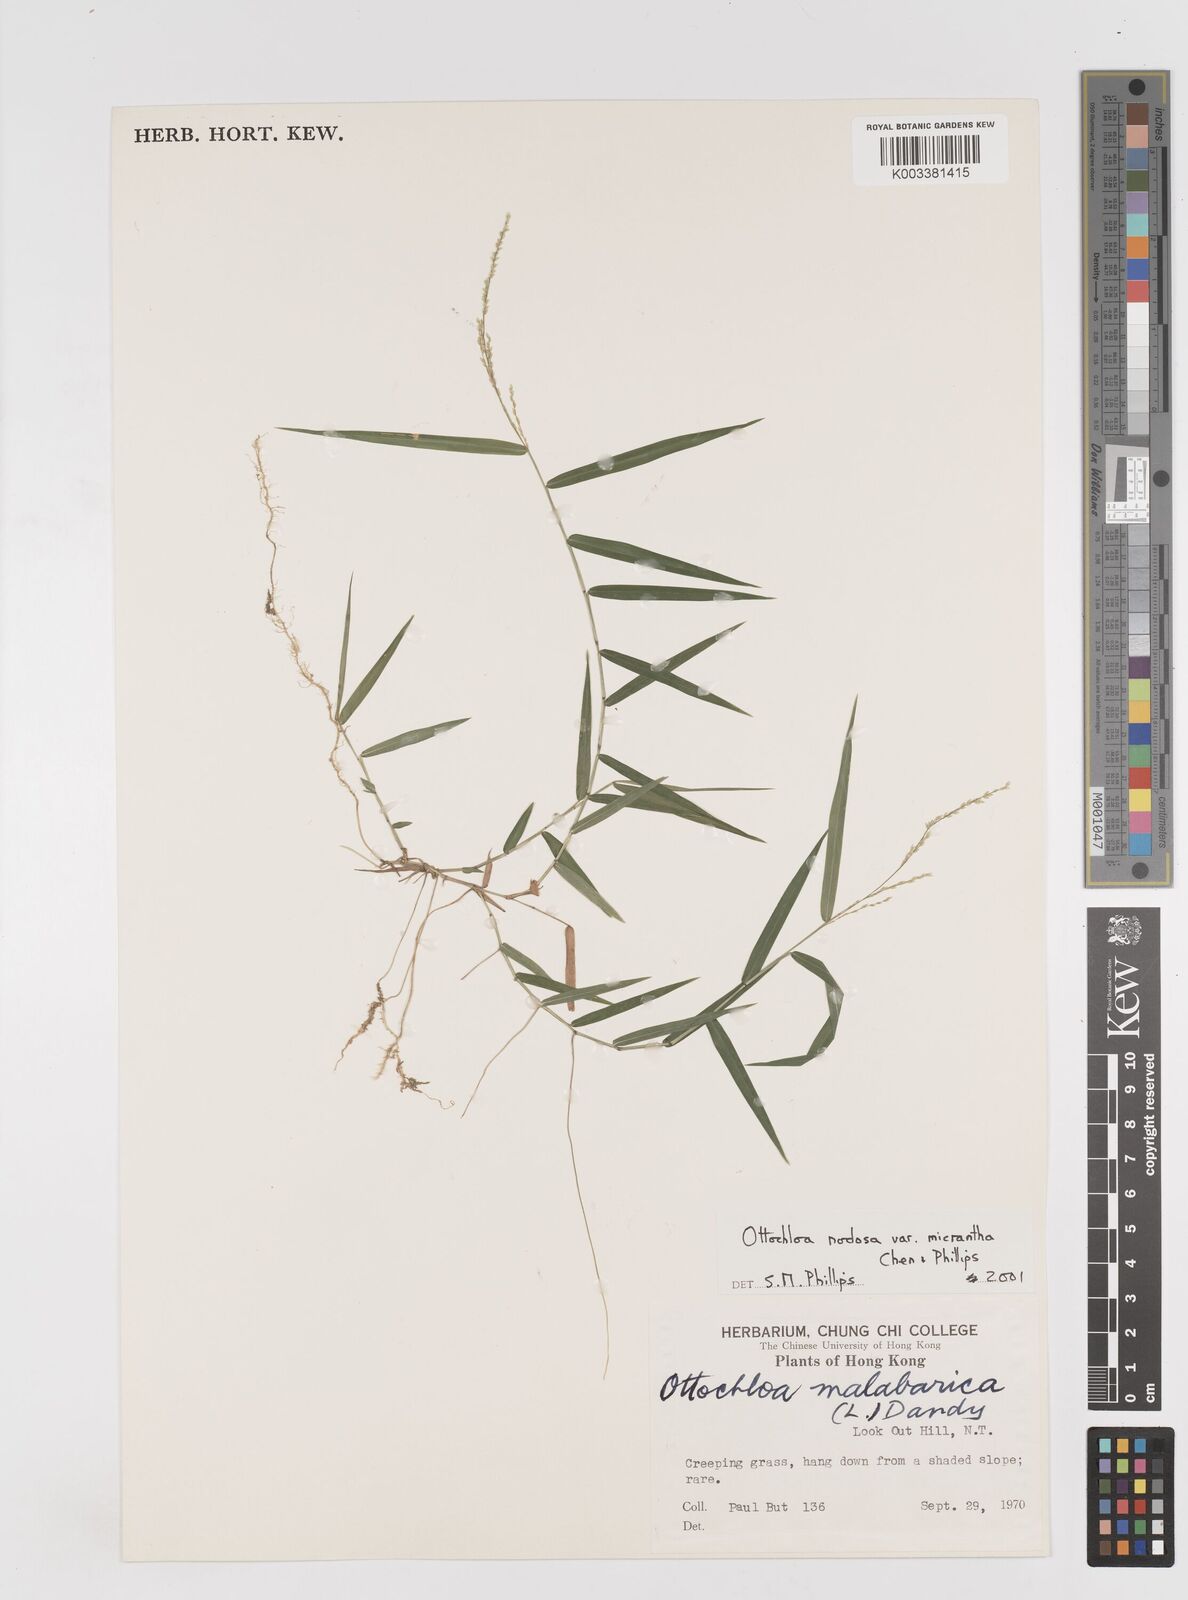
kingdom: Plantae
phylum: Tracheophyta
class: Liliopsida
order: Poales
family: Poaceae
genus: Ottochloa
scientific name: Ottochloa nodosa
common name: Slender-panic grass
